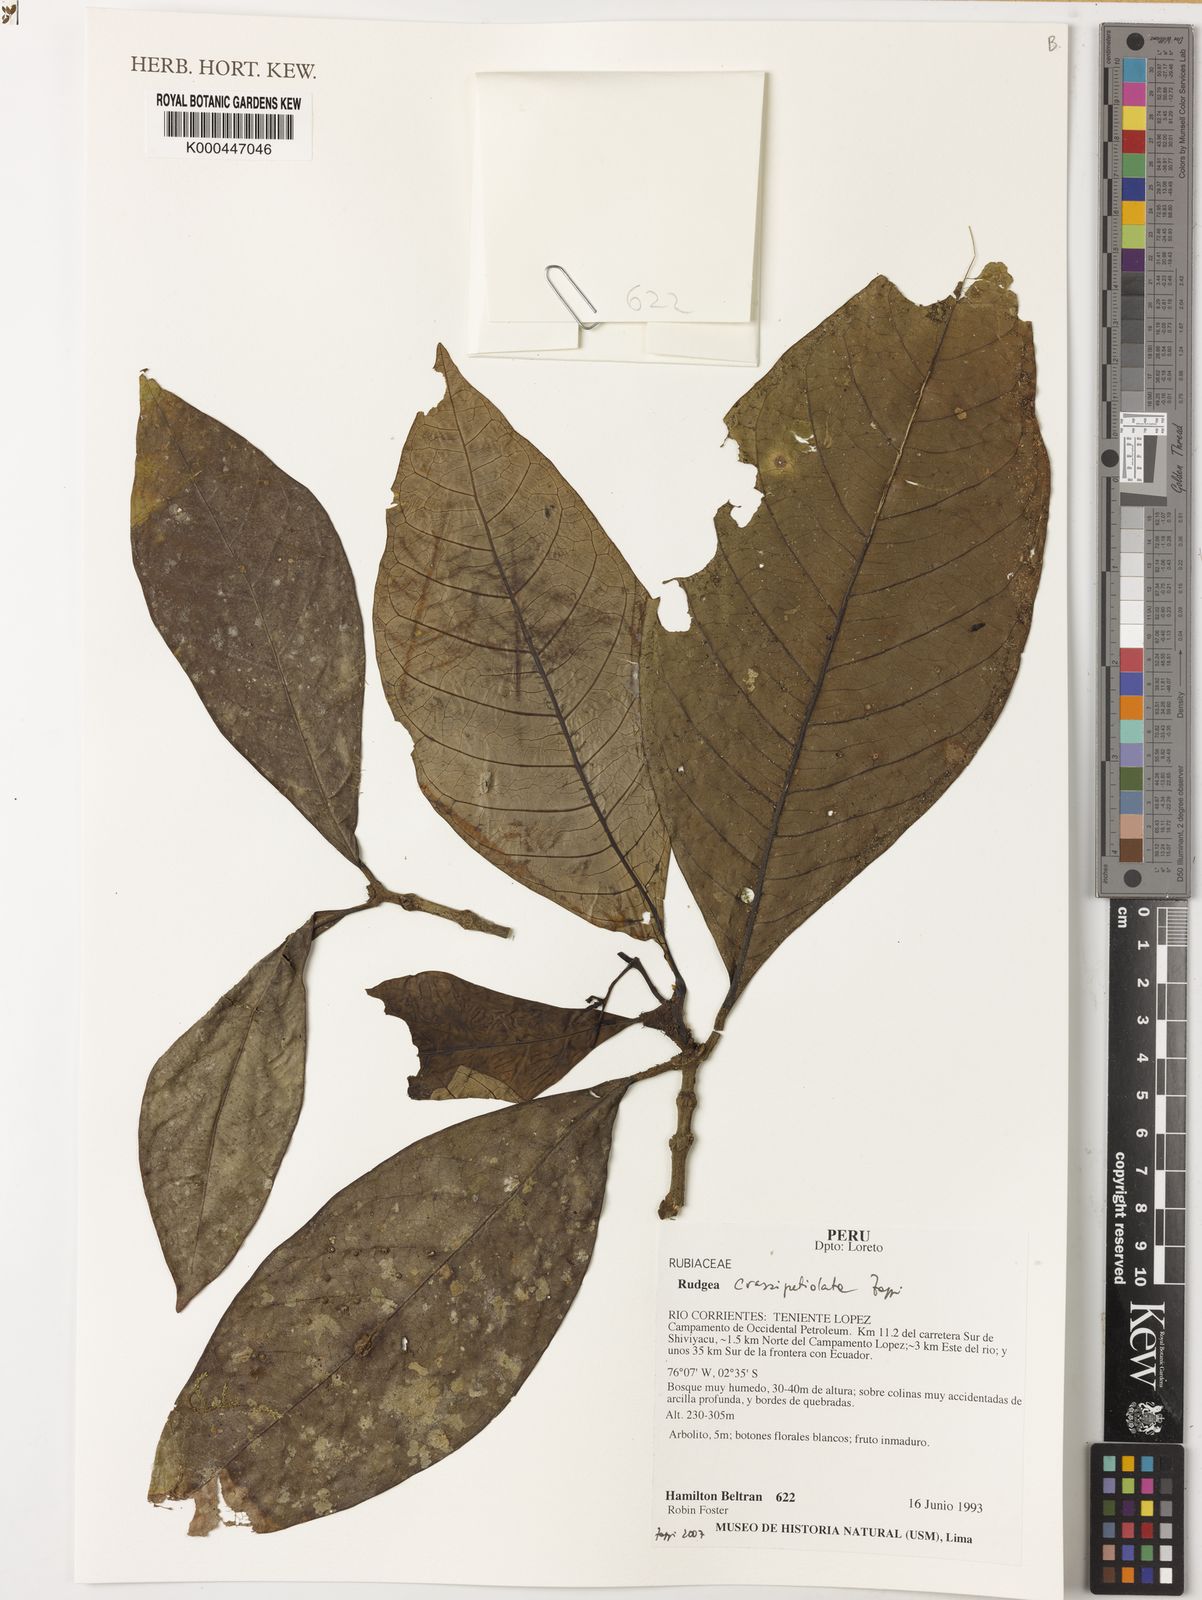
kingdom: Plantae
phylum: Tracheophyta
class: Magnoliopsida
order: Gentianales
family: Rubiaceae
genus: Rudgea
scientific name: Rudgea crassipetiolata
